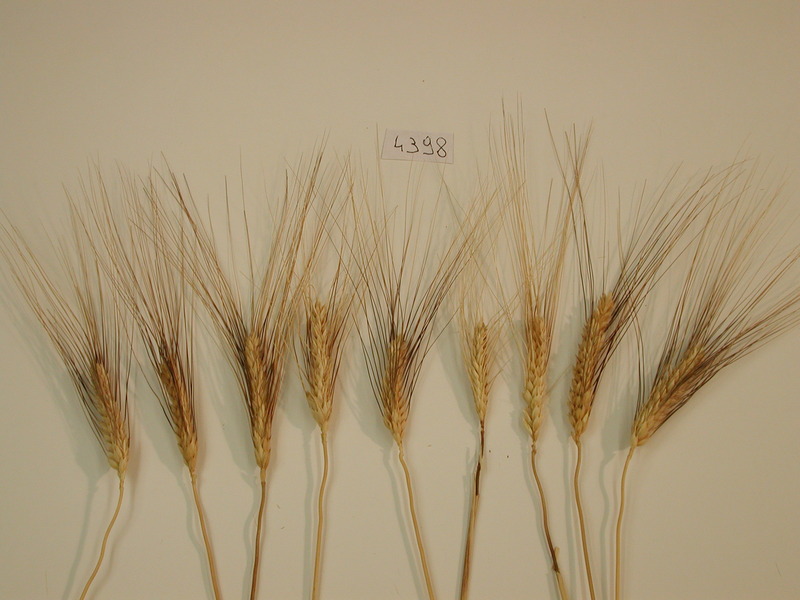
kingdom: Plantae
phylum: Tracheophyta
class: Liliopsida
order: Poales
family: Poaceae
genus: Triticum
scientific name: Triticum turgidum
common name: Rivet wheat
